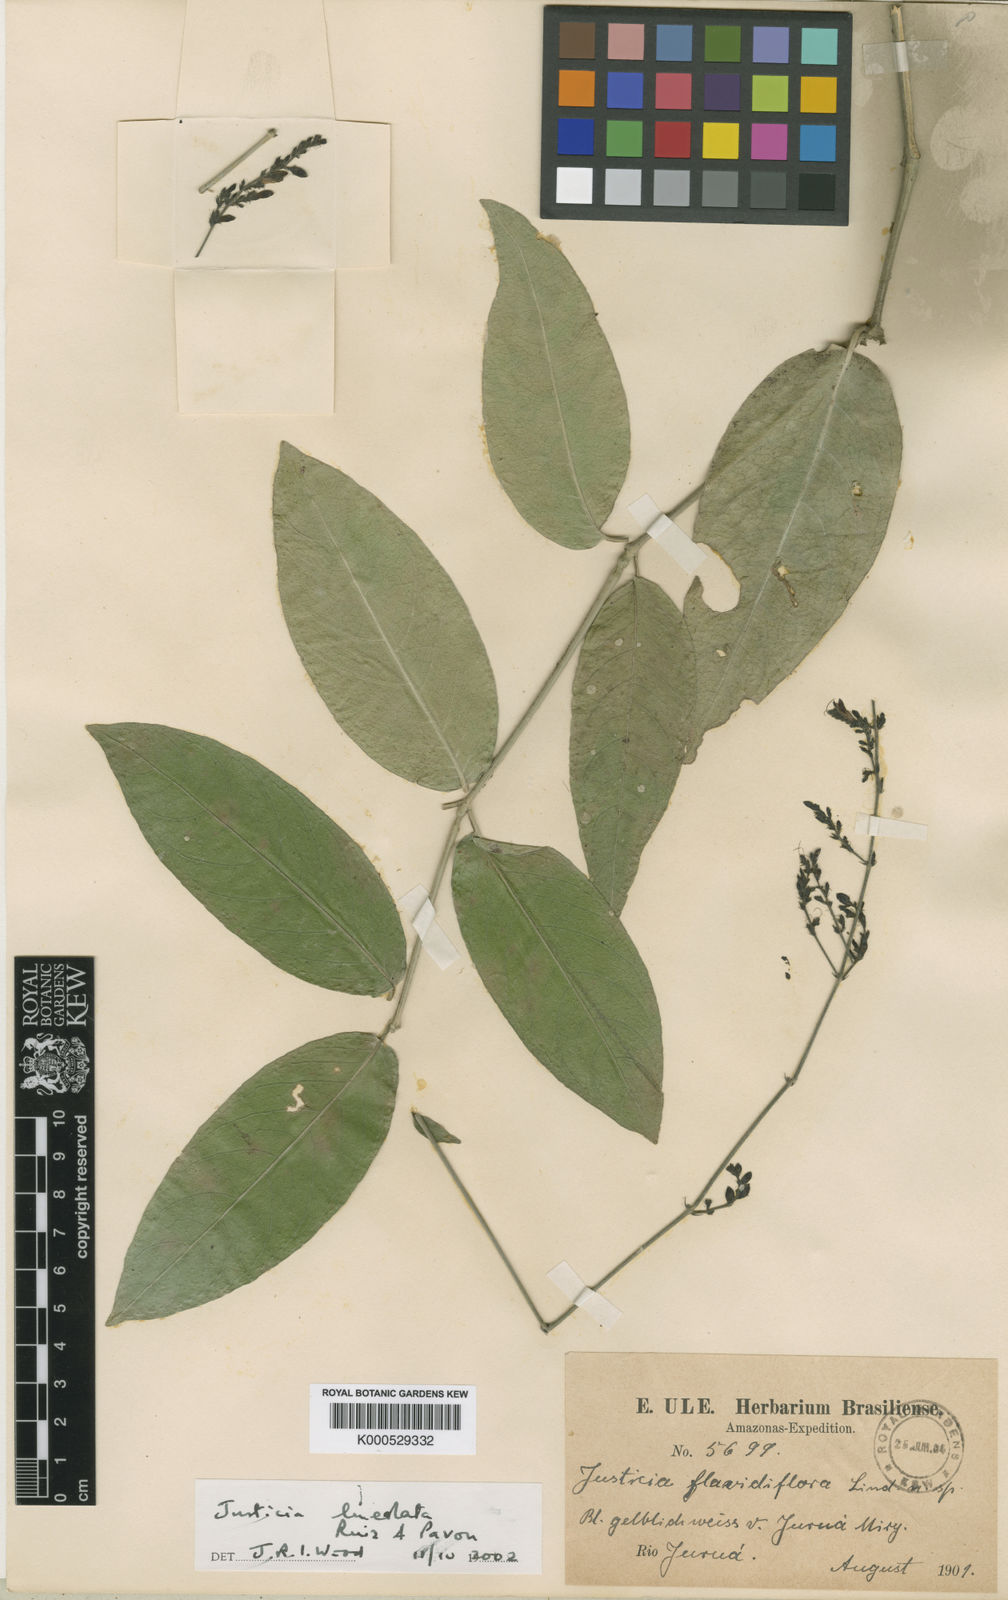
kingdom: Plantae
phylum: Tracheophyta
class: Magnoliopsida
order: Lamiales
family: Acanthaceae
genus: Justicia
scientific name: Justicia lineolata
